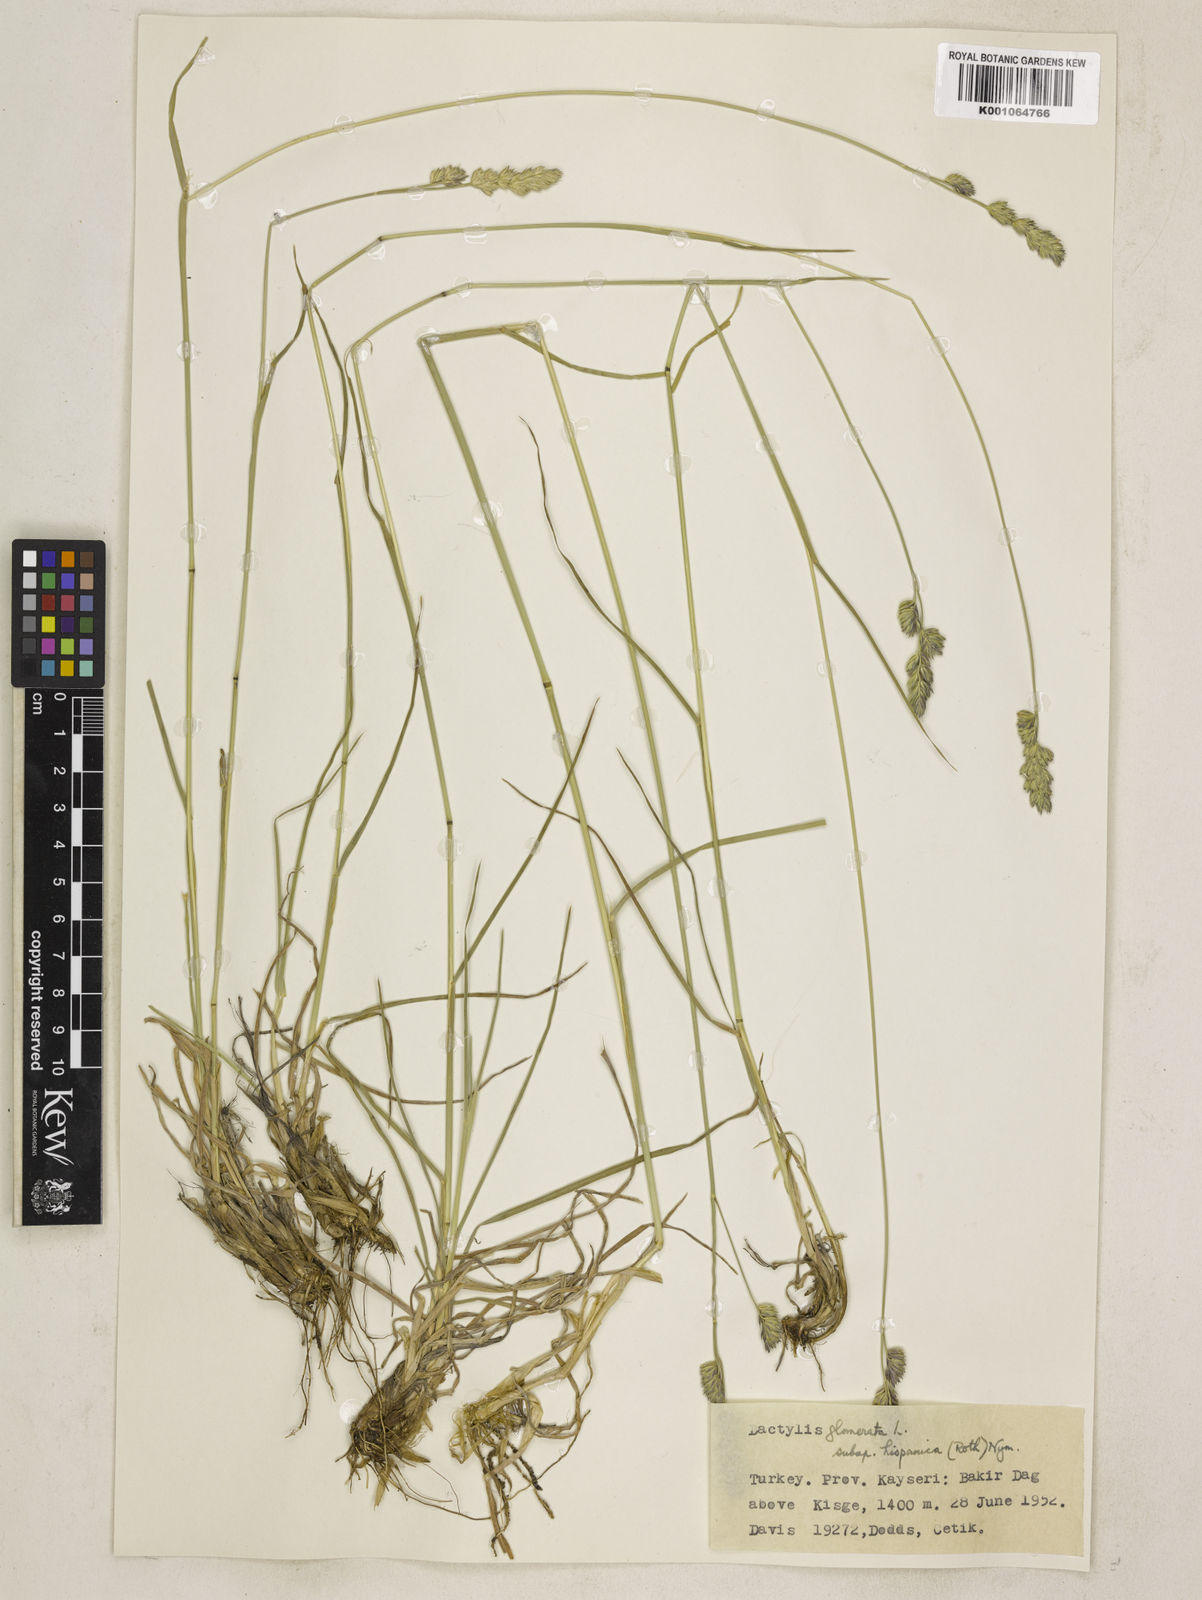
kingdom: Plantae
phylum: Tracheophyta
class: Liliopsida
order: Poales
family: Poaceae
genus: Dactylis
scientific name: Dactylis glomerata
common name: Orchardgrass
